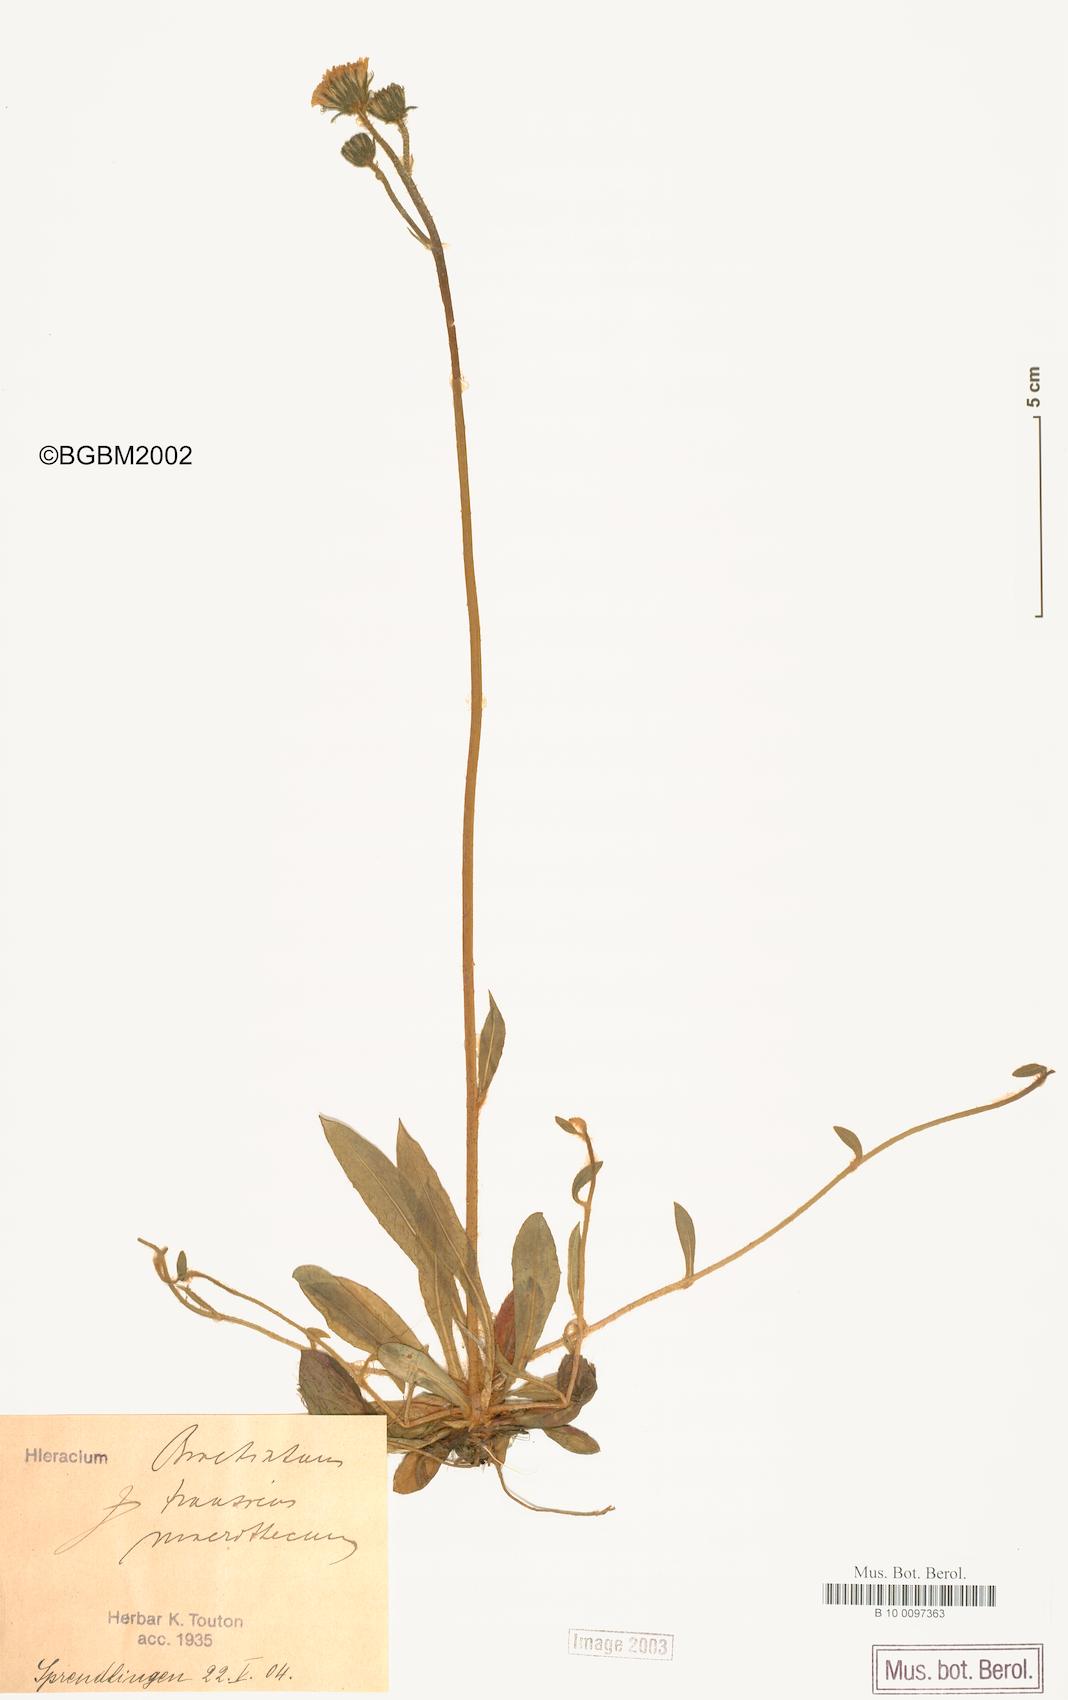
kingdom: Plantae
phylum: Tracheophyta
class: Magnoliopsida
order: Asterales
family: Asteraceae
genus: Pilosella
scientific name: Pilosella acutifolia
